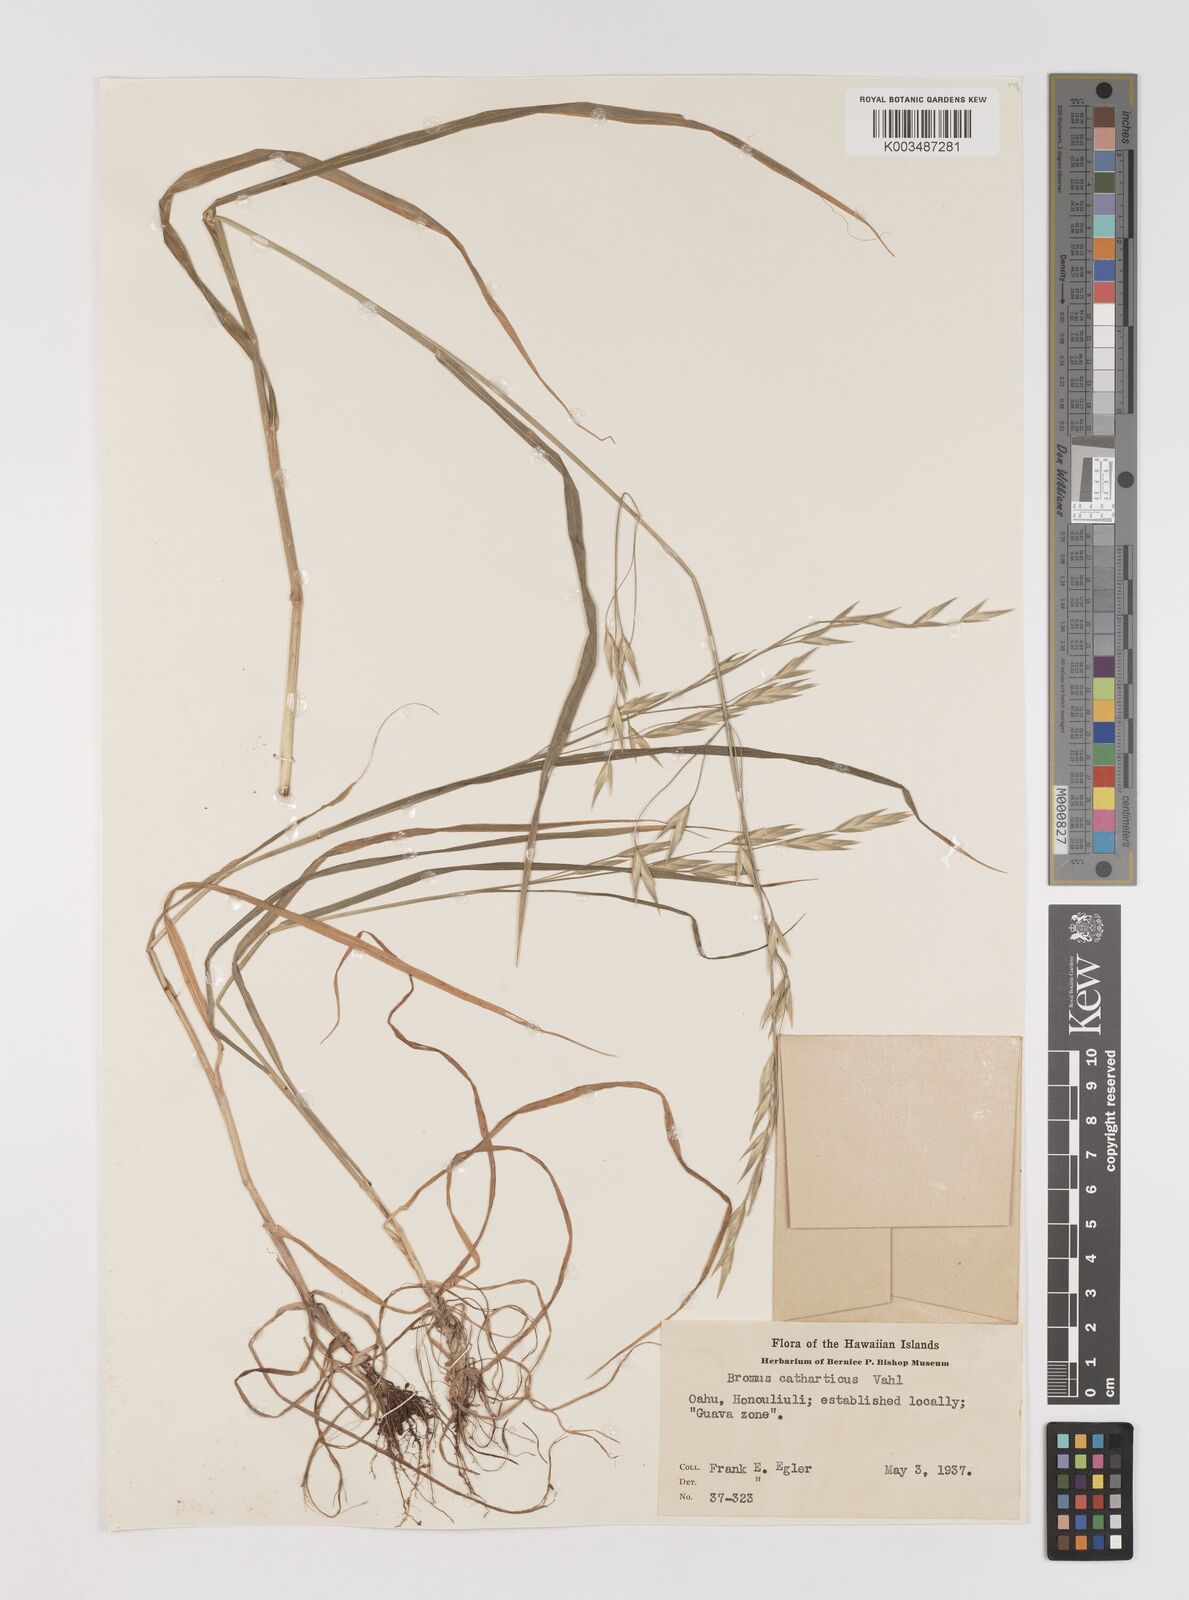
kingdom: Plantae
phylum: Tracheophyta
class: Liliopsida
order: Poales
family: Poaceae
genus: Bromus
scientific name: Bromus catharticus
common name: Rescuegrass
